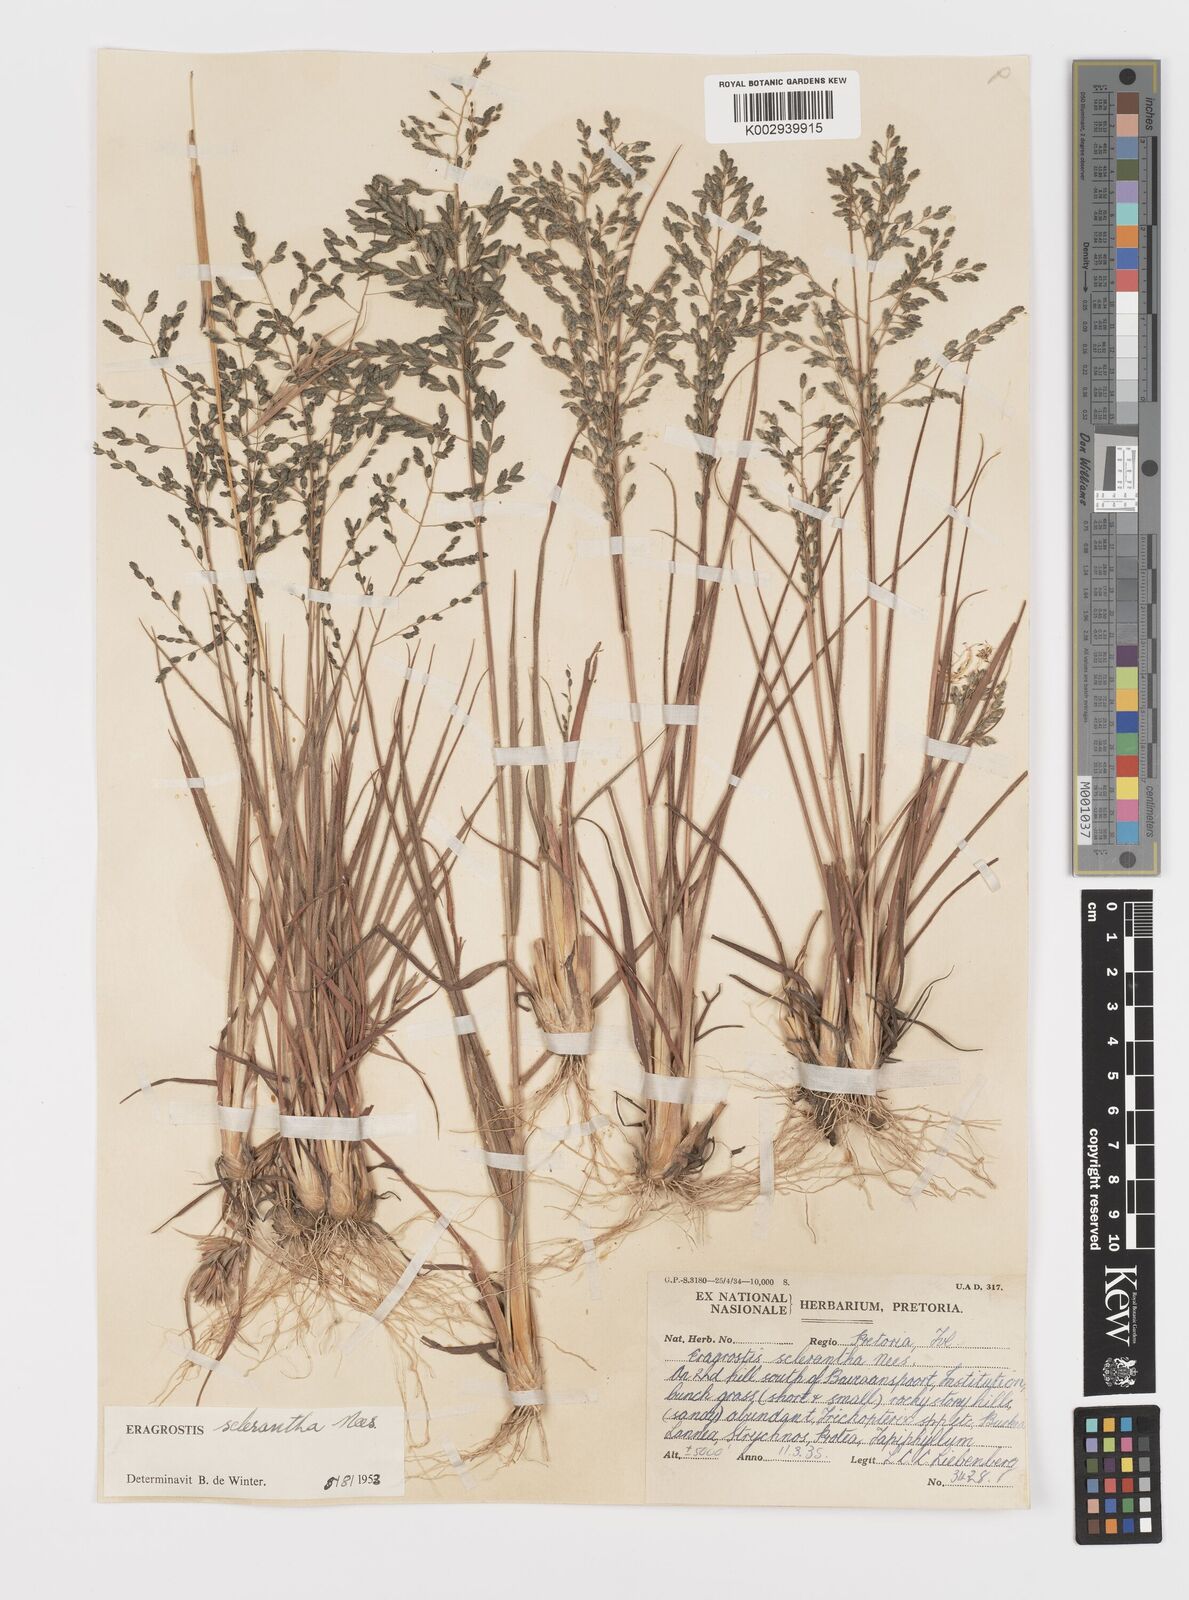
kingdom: Plantae
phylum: Tracheophyta
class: Liliopsida
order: Poales
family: Poaceae
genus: Eragrostis
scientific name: Eragrostis sclerantha
